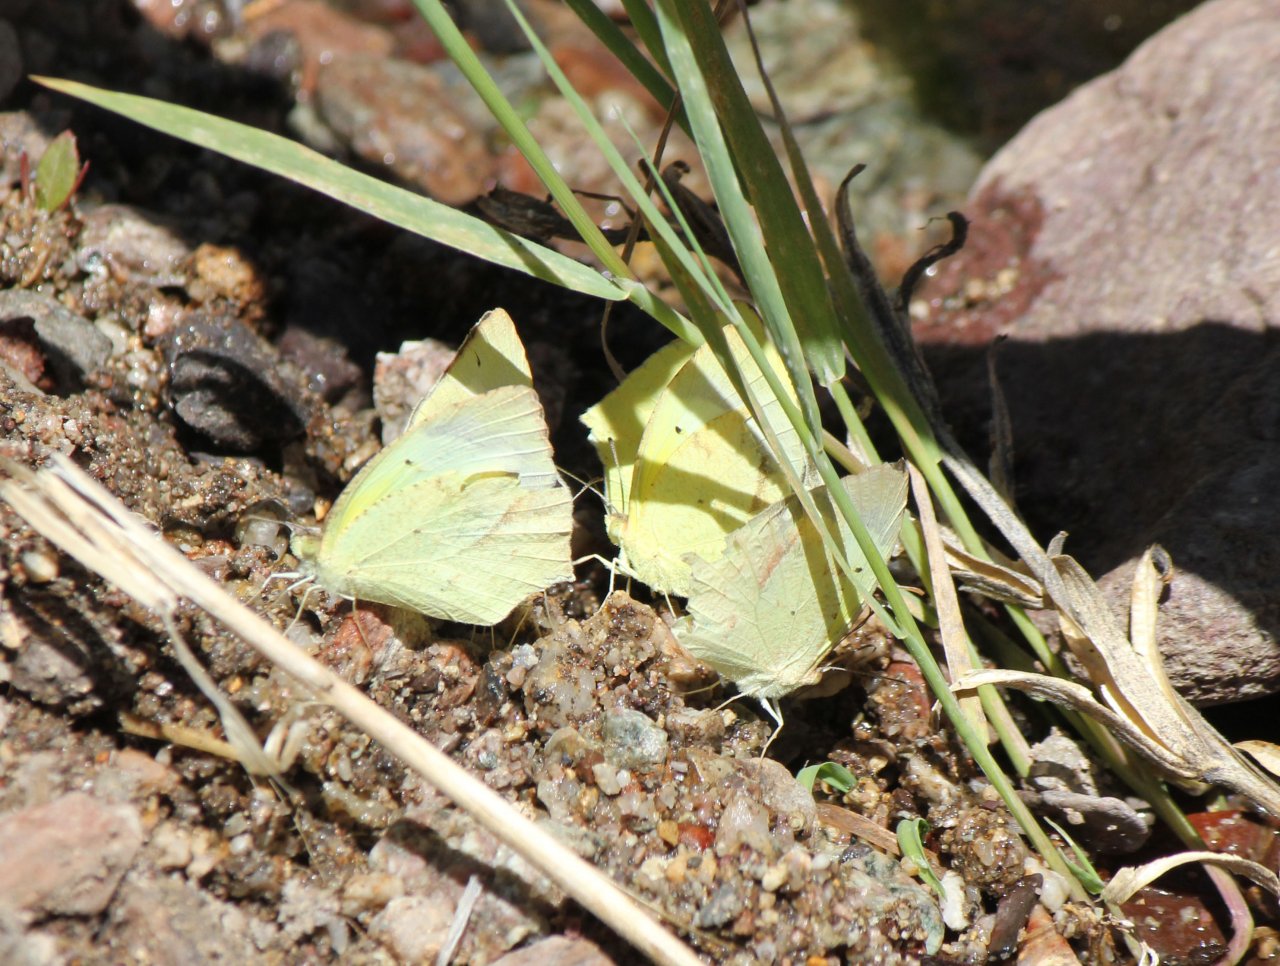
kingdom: Animalia
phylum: Arthropoda
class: Insecta
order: Lepidoptera
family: Pieridae
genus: Eurema
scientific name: Eurema mexicana
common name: Mexican Yellow
